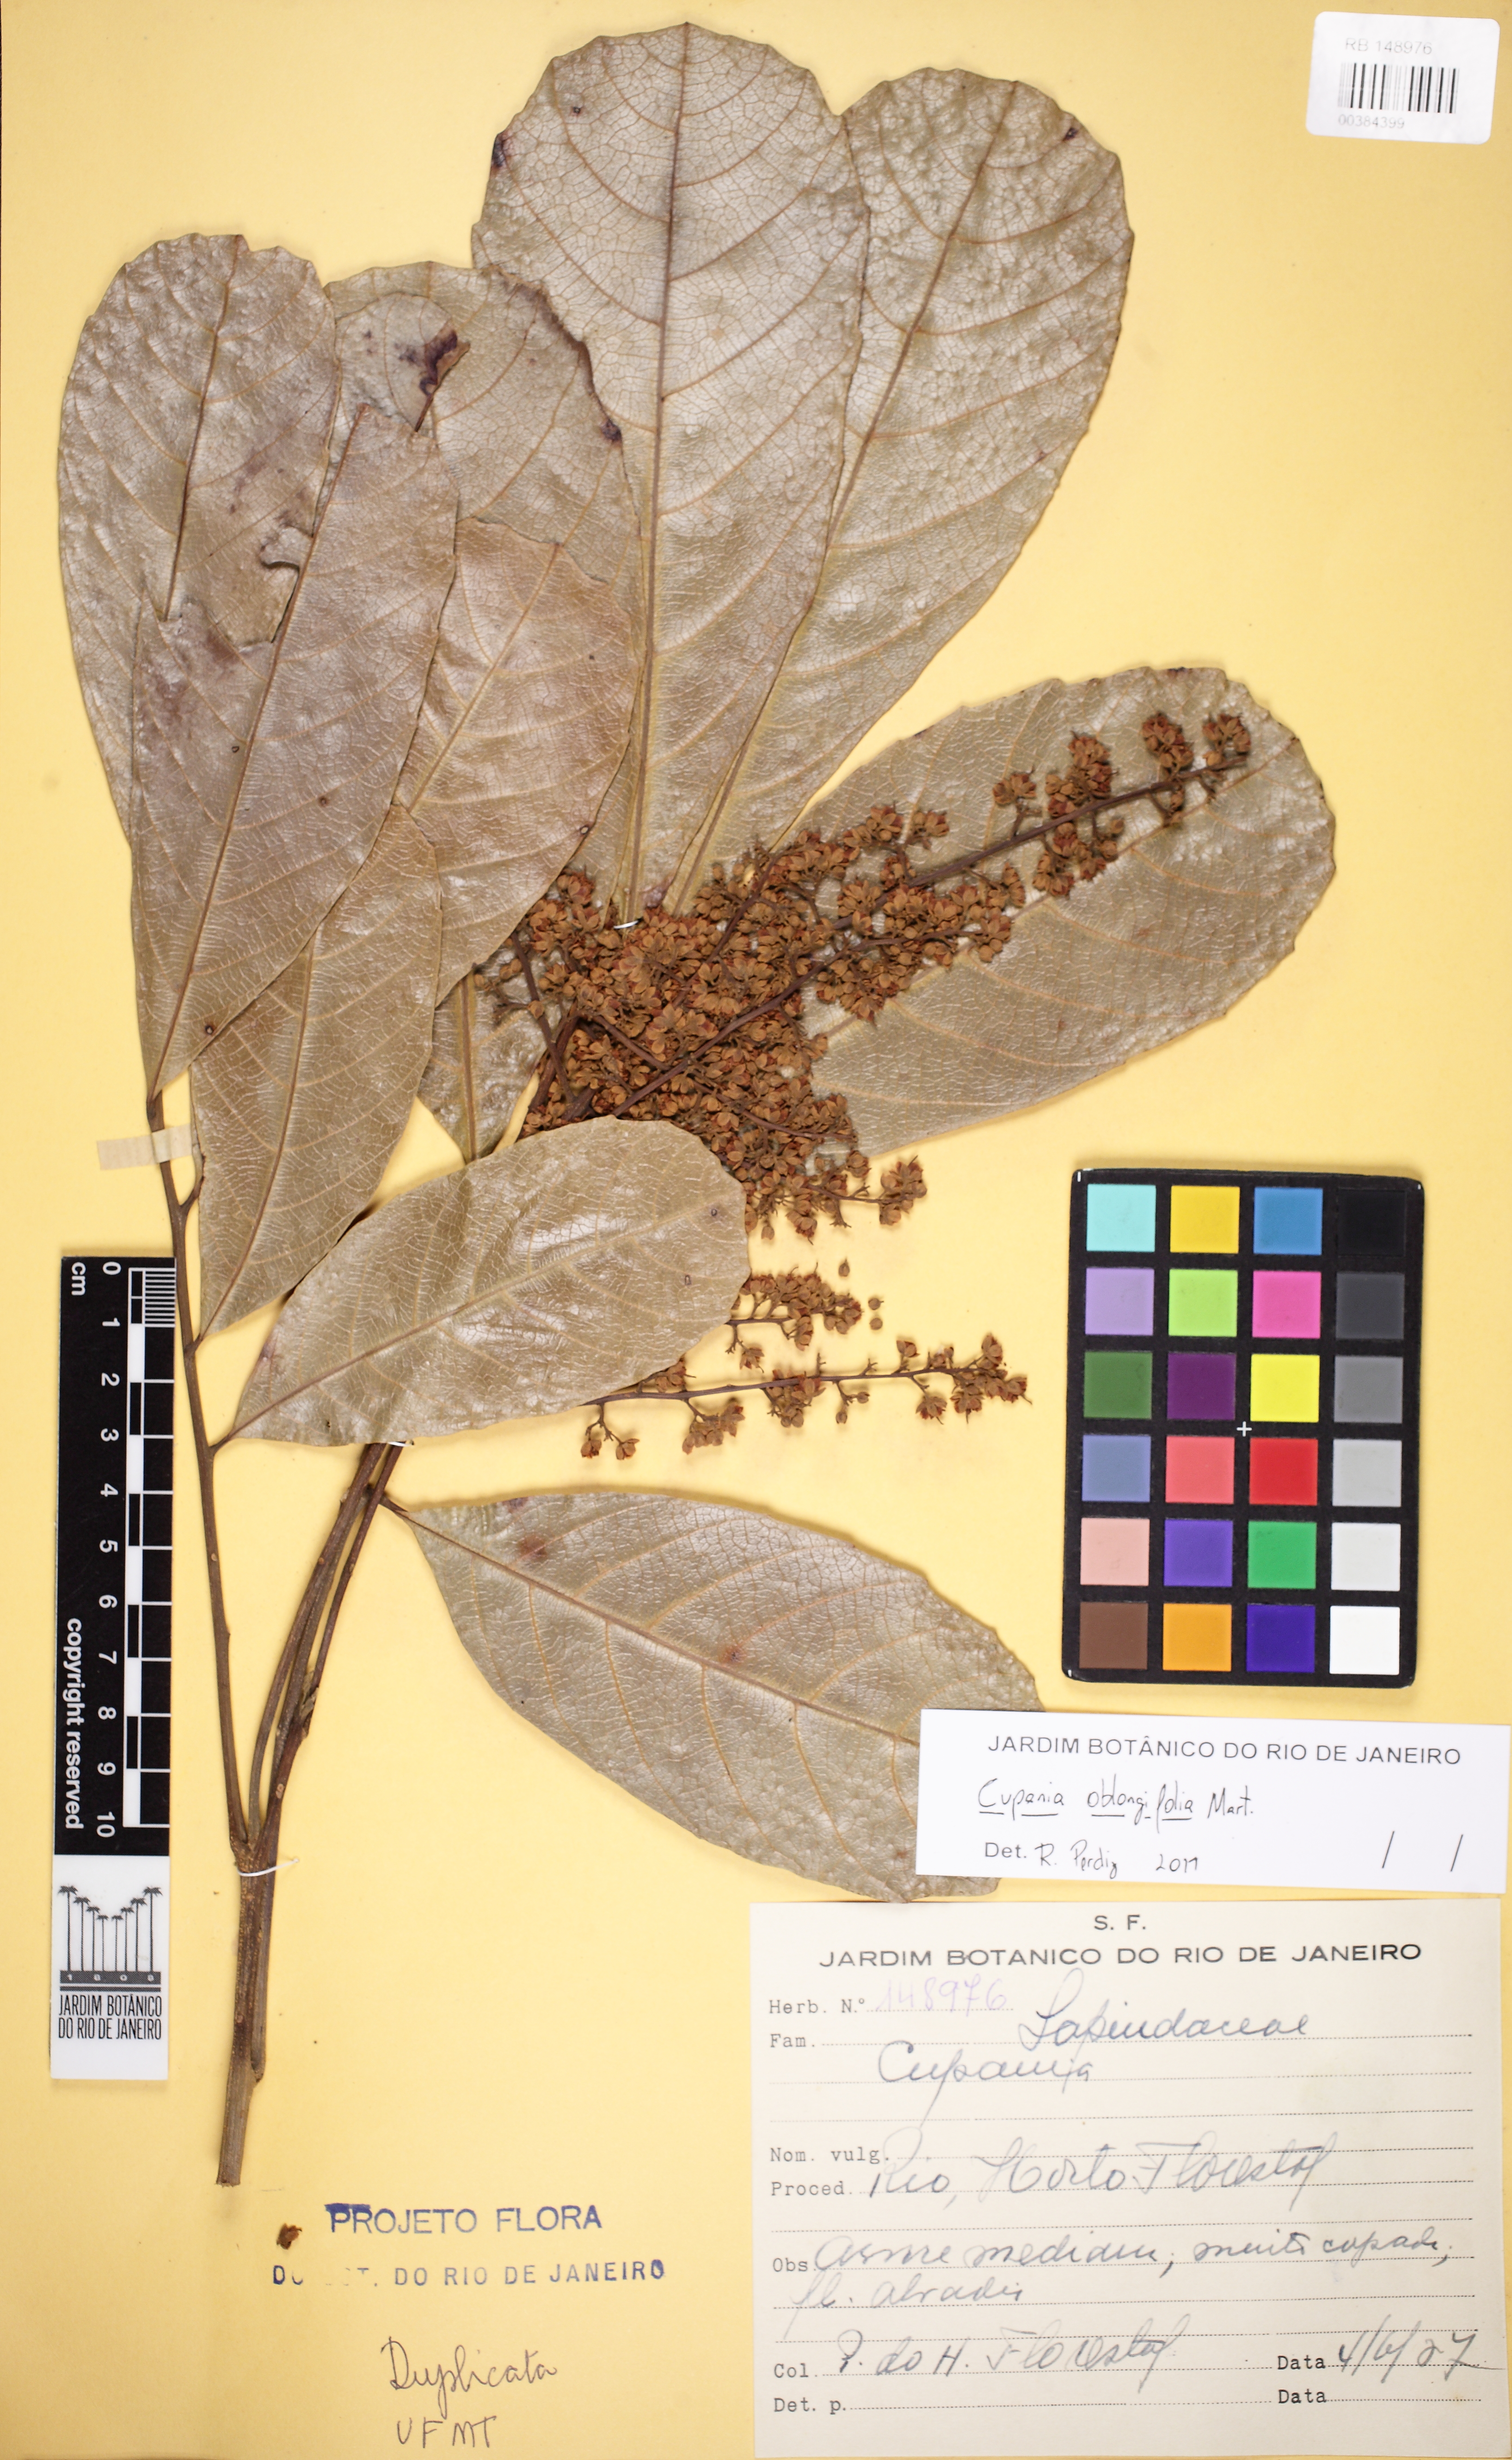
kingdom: Plantae
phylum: Tracheophyta
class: Magnoliopsida
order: Sapindales
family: Sapindaceae
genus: Cupania
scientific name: Cupania oblongifolia
